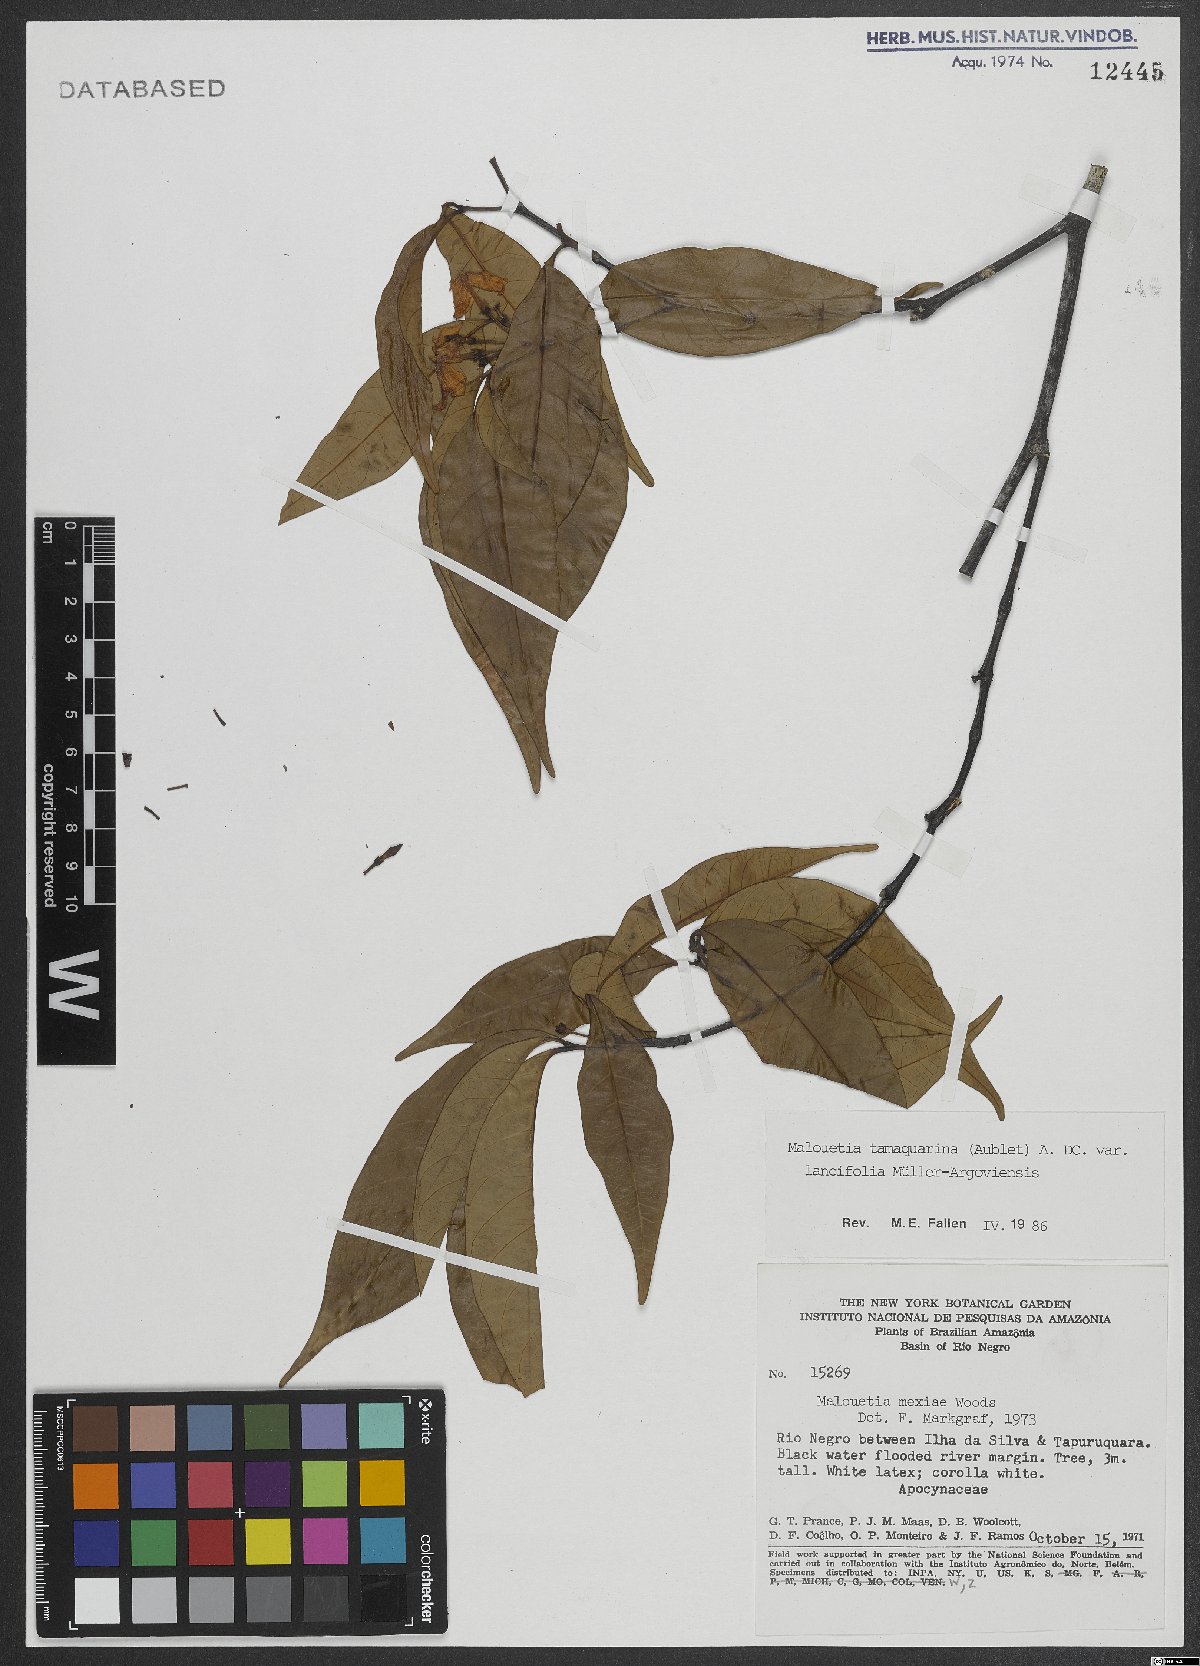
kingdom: Plantae
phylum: Tracheophyta
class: Magnoliopsida
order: Gentianales
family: Apocynaceae
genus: Malouetia
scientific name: Malouetia tamaquarina
